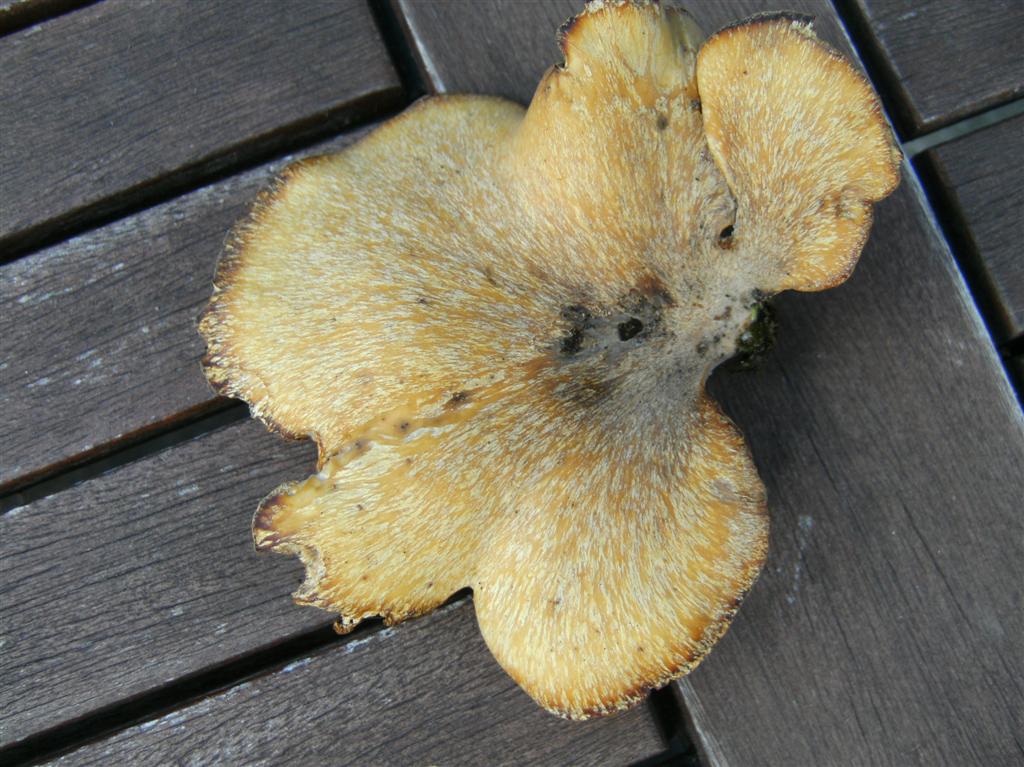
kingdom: Fungi
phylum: Basidiomycota
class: Agaricomycetes
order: Polyporales
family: Polyporaceae
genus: Cerioporus
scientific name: Cerioporus varius
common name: foranderlig stilkporesvamp
